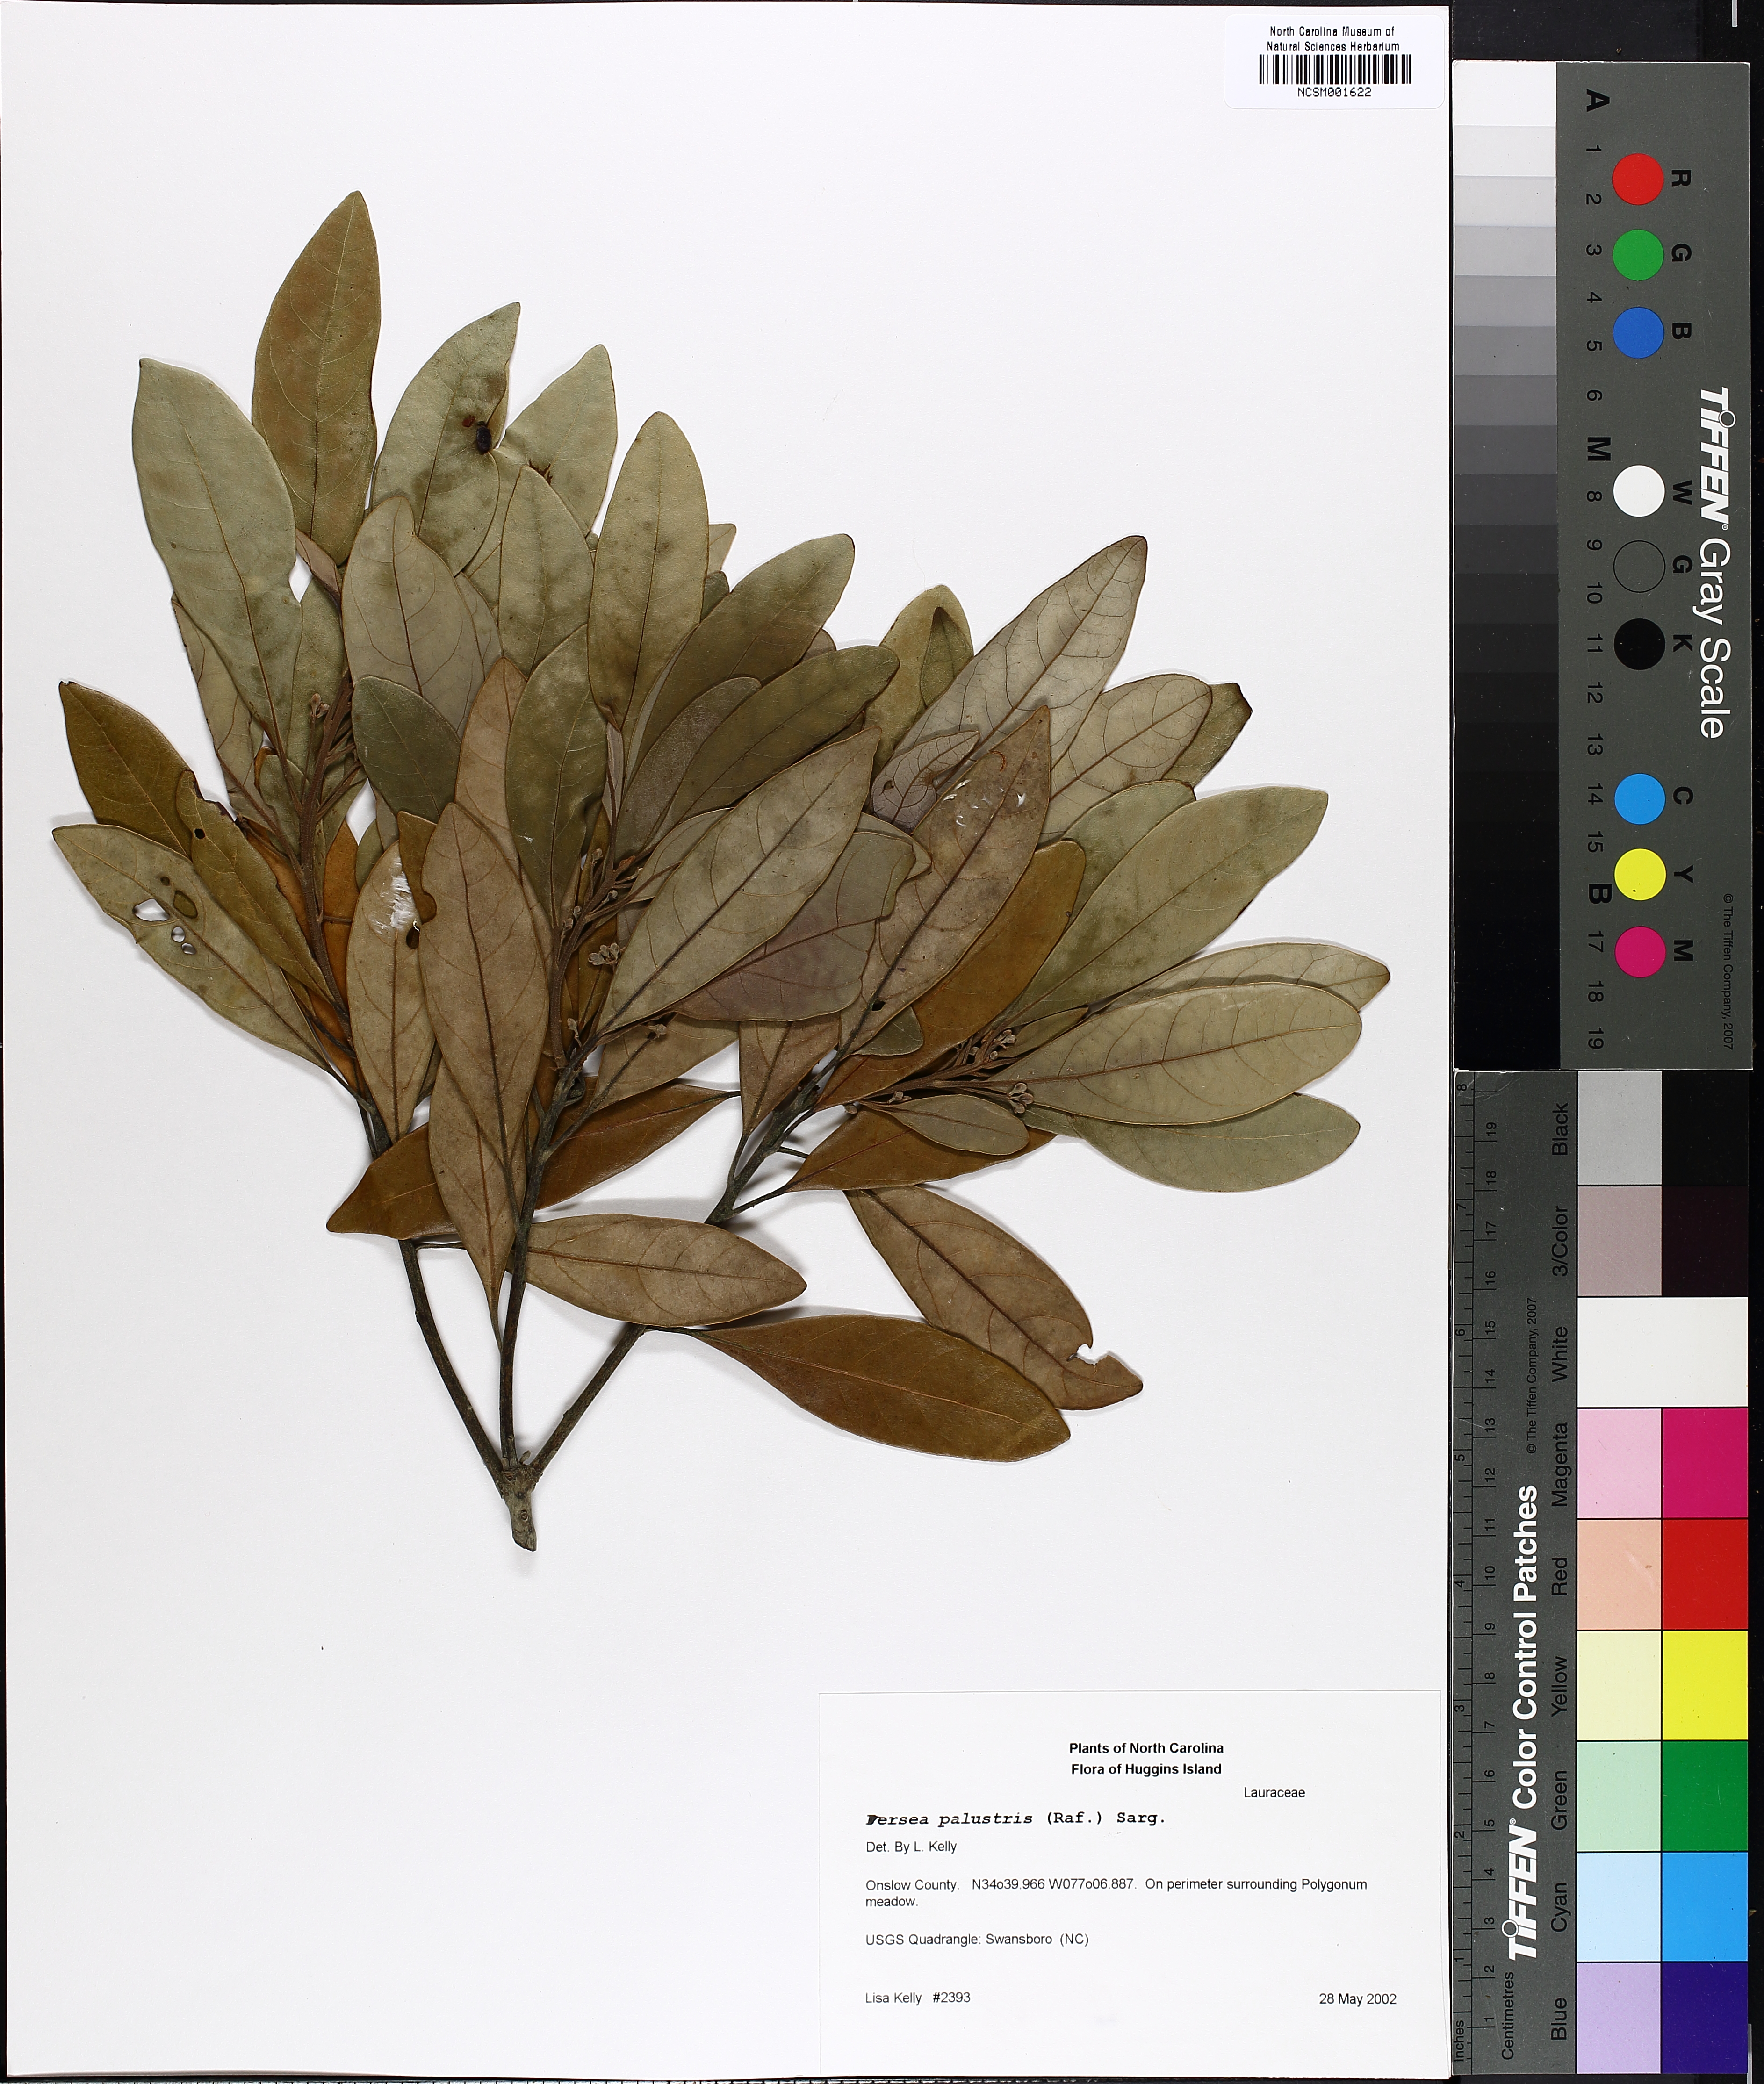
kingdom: Plantae
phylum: Tracheophyta
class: Magnoliopsida
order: Laurales
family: Lauraceae
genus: Persea
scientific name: Persea palustris
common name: Swampbay
